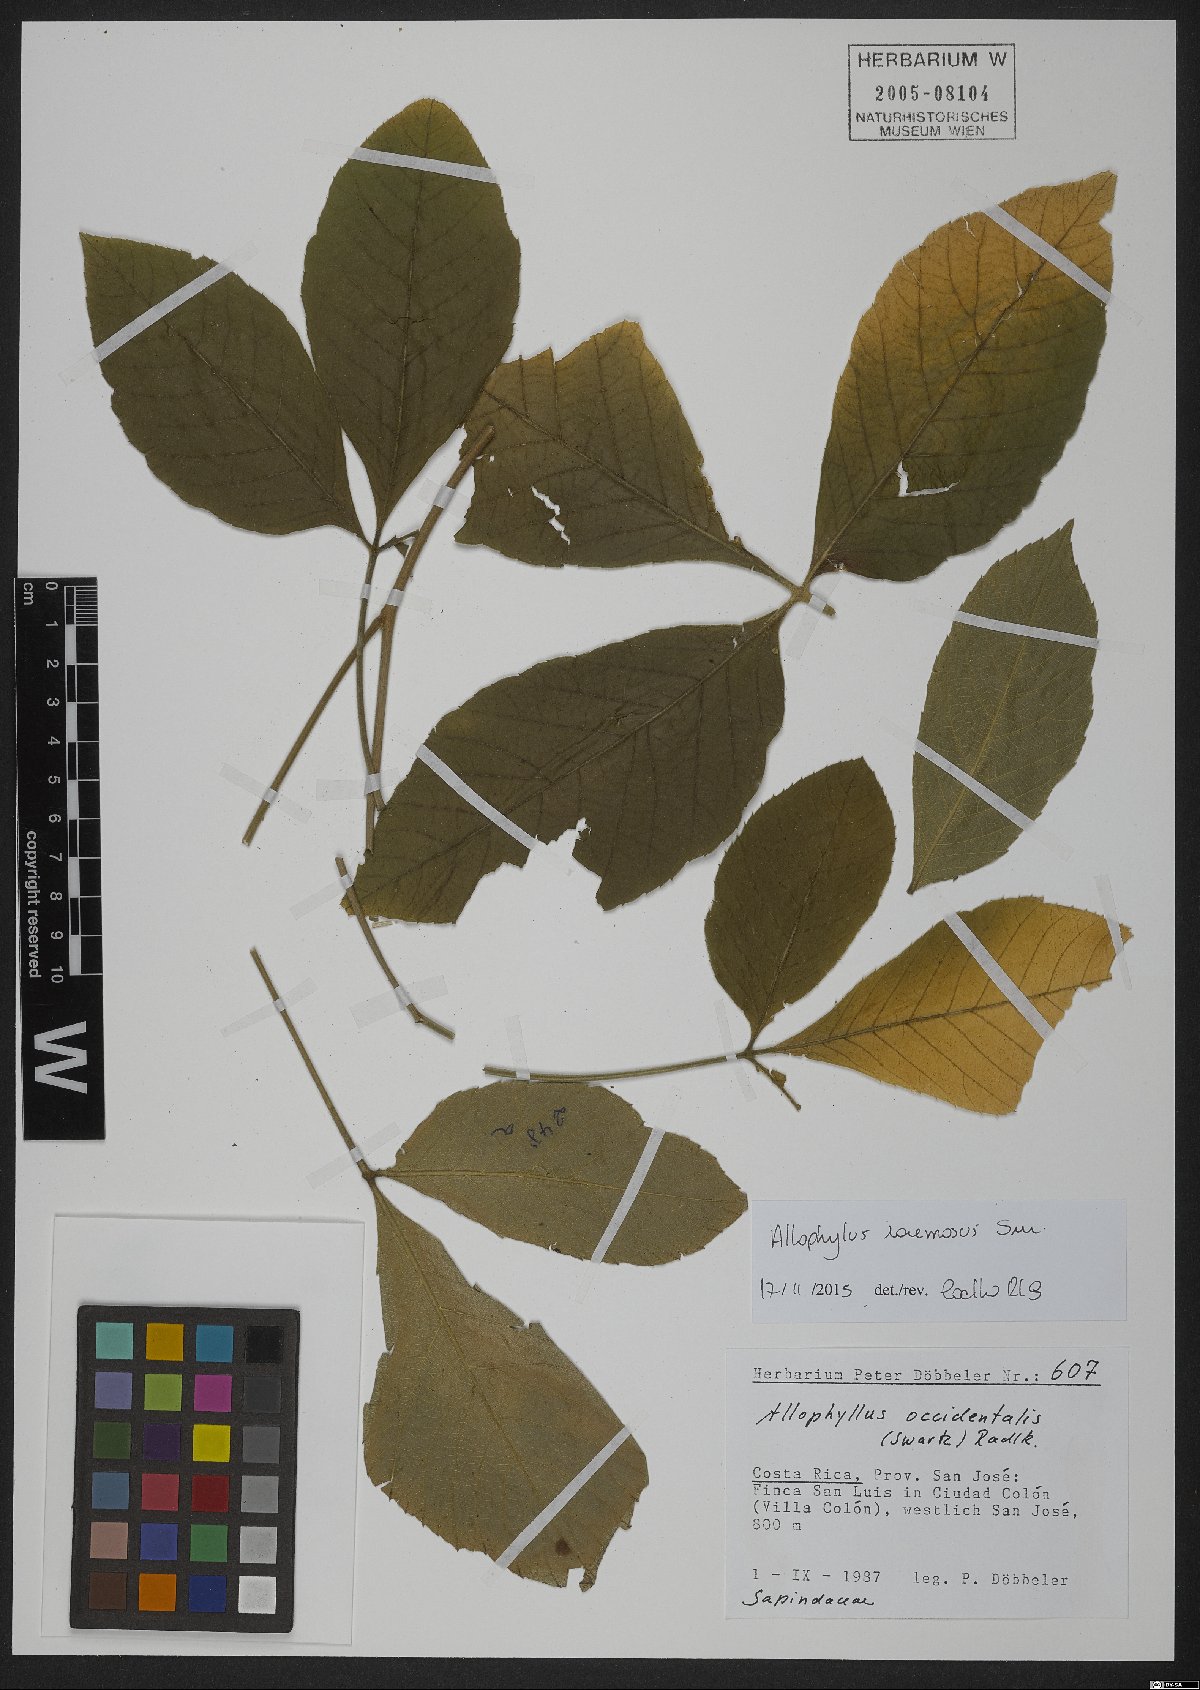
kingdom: Plantae
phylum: Tracheophyta
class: Magnoliopsida
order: Sapindales
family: Sapindaceae
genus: Allophylus
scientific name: Allophylus racemosus
